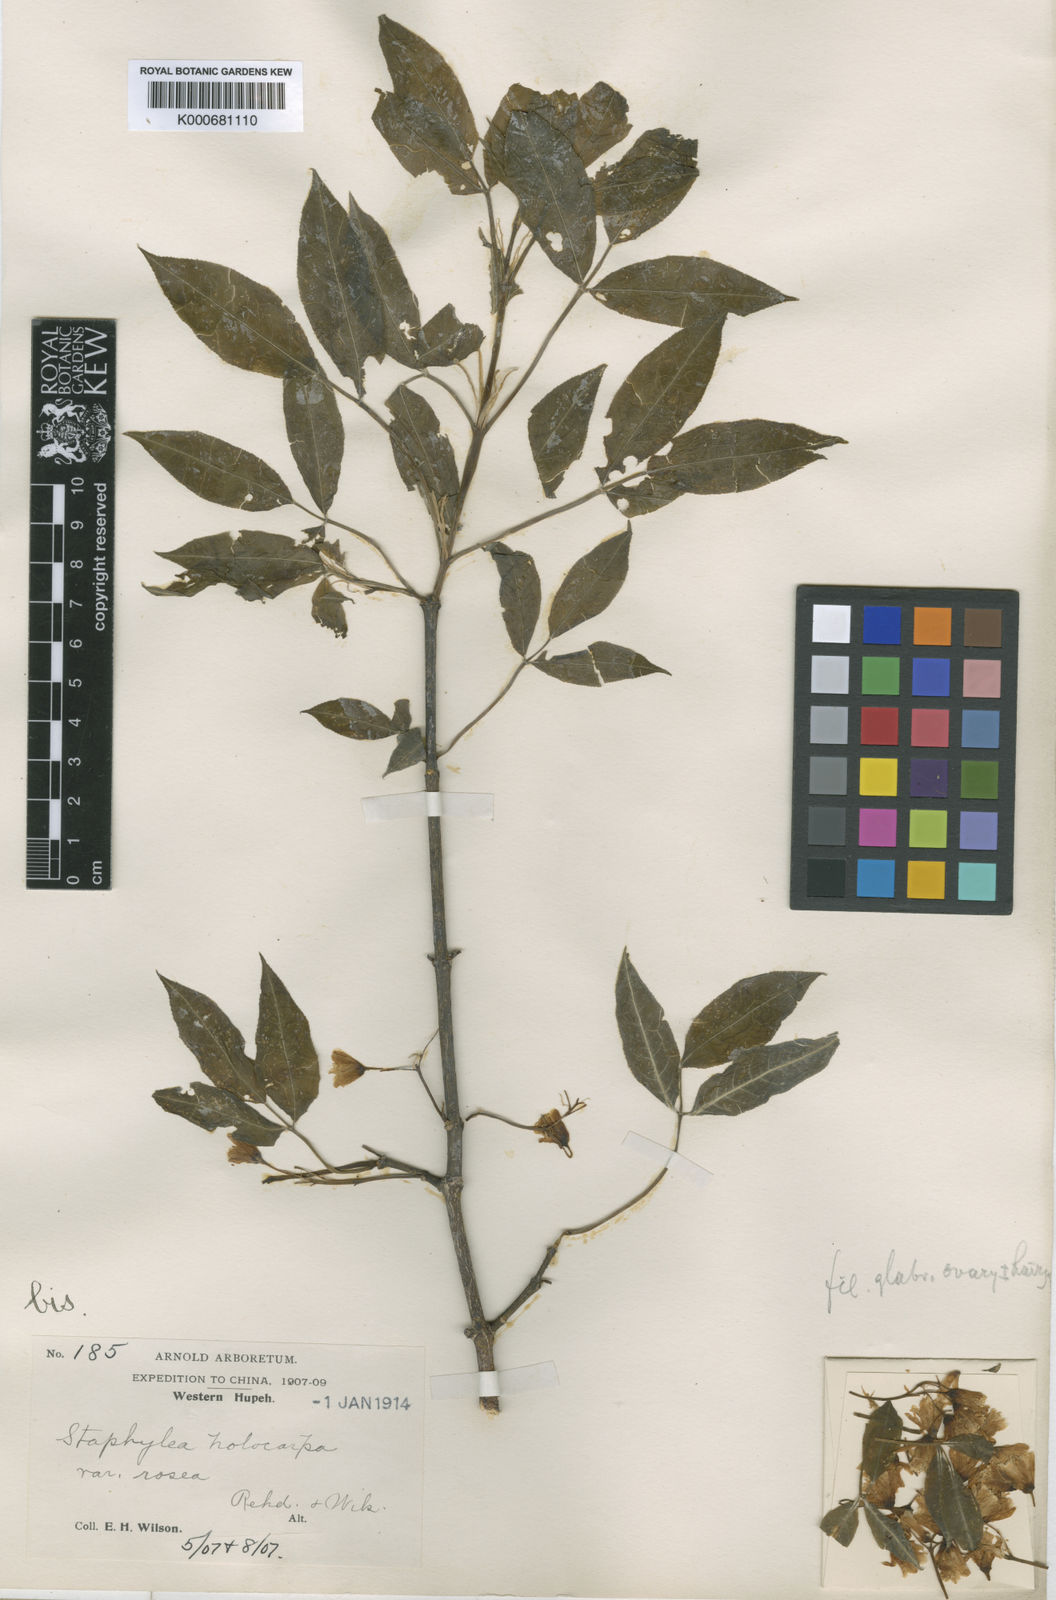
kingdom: Plantae
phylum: Tracheophyta
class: Magnoliopsida
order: Crossosomatales
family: Staphyleaceae
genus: Staphylea
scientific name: Staphylea holocarpa
